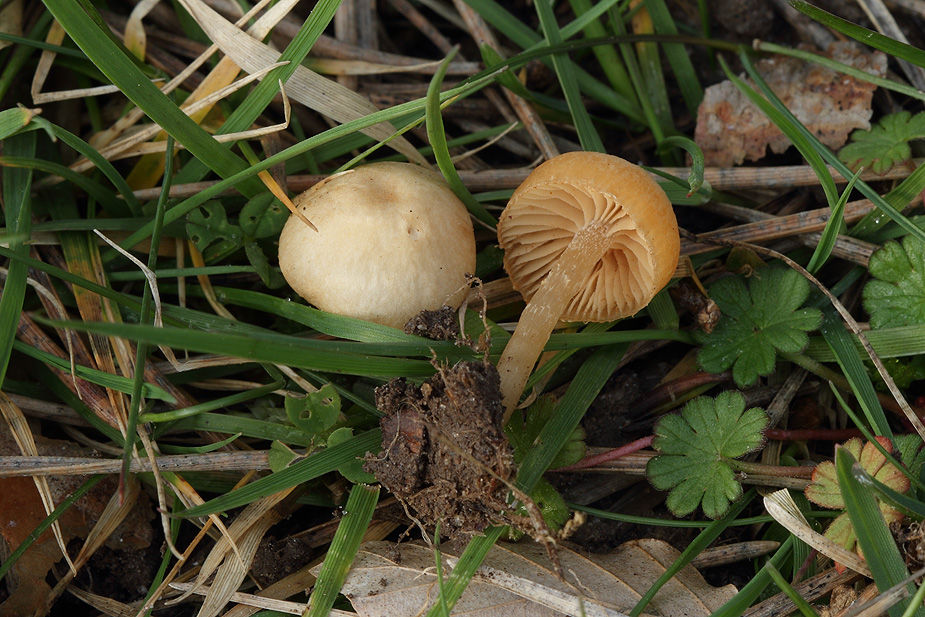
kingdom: Fungi
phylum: Basidiomycota
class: Agaricomycetes
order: Agaricales
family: Tubariaceae
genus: Tubaria
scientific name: Tubaria furfuracea
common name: kliddet fnughat
